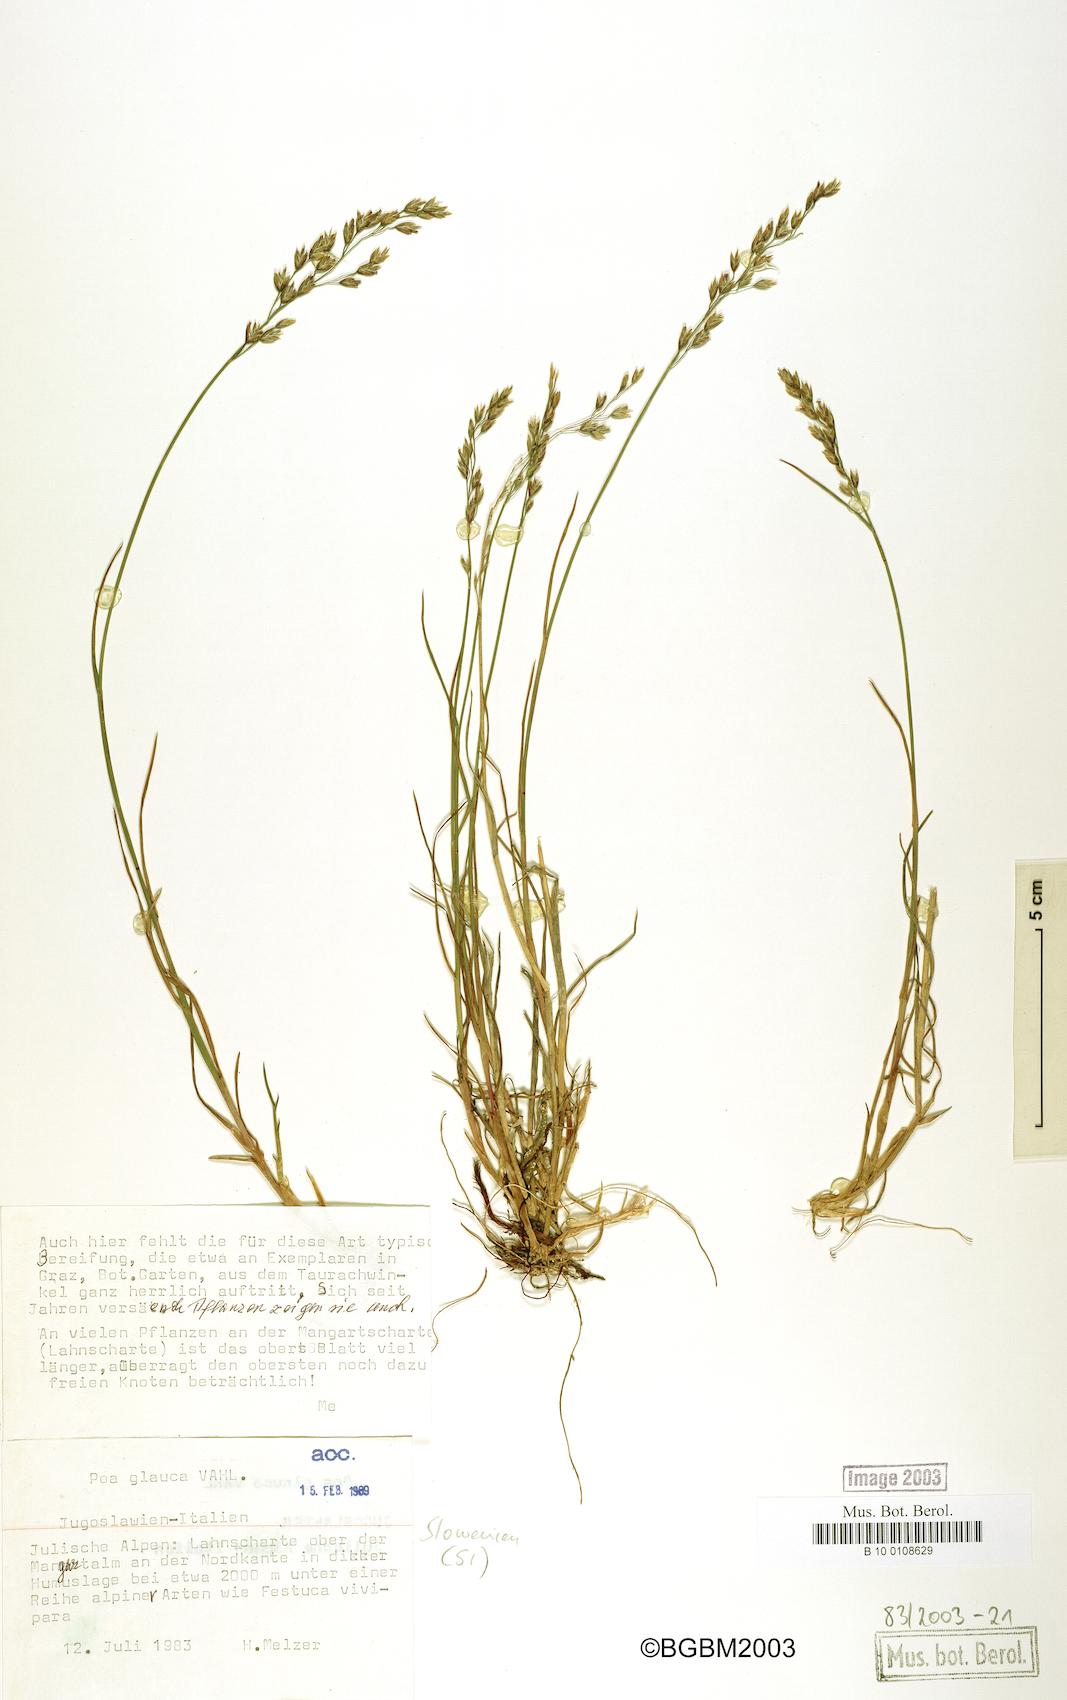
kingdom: Plantae
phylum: Tracheophyta
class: Liliopsida
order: Poales
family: Poaceae
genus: Poa
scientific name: Poa glauca
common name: Glaucous bluegrass
